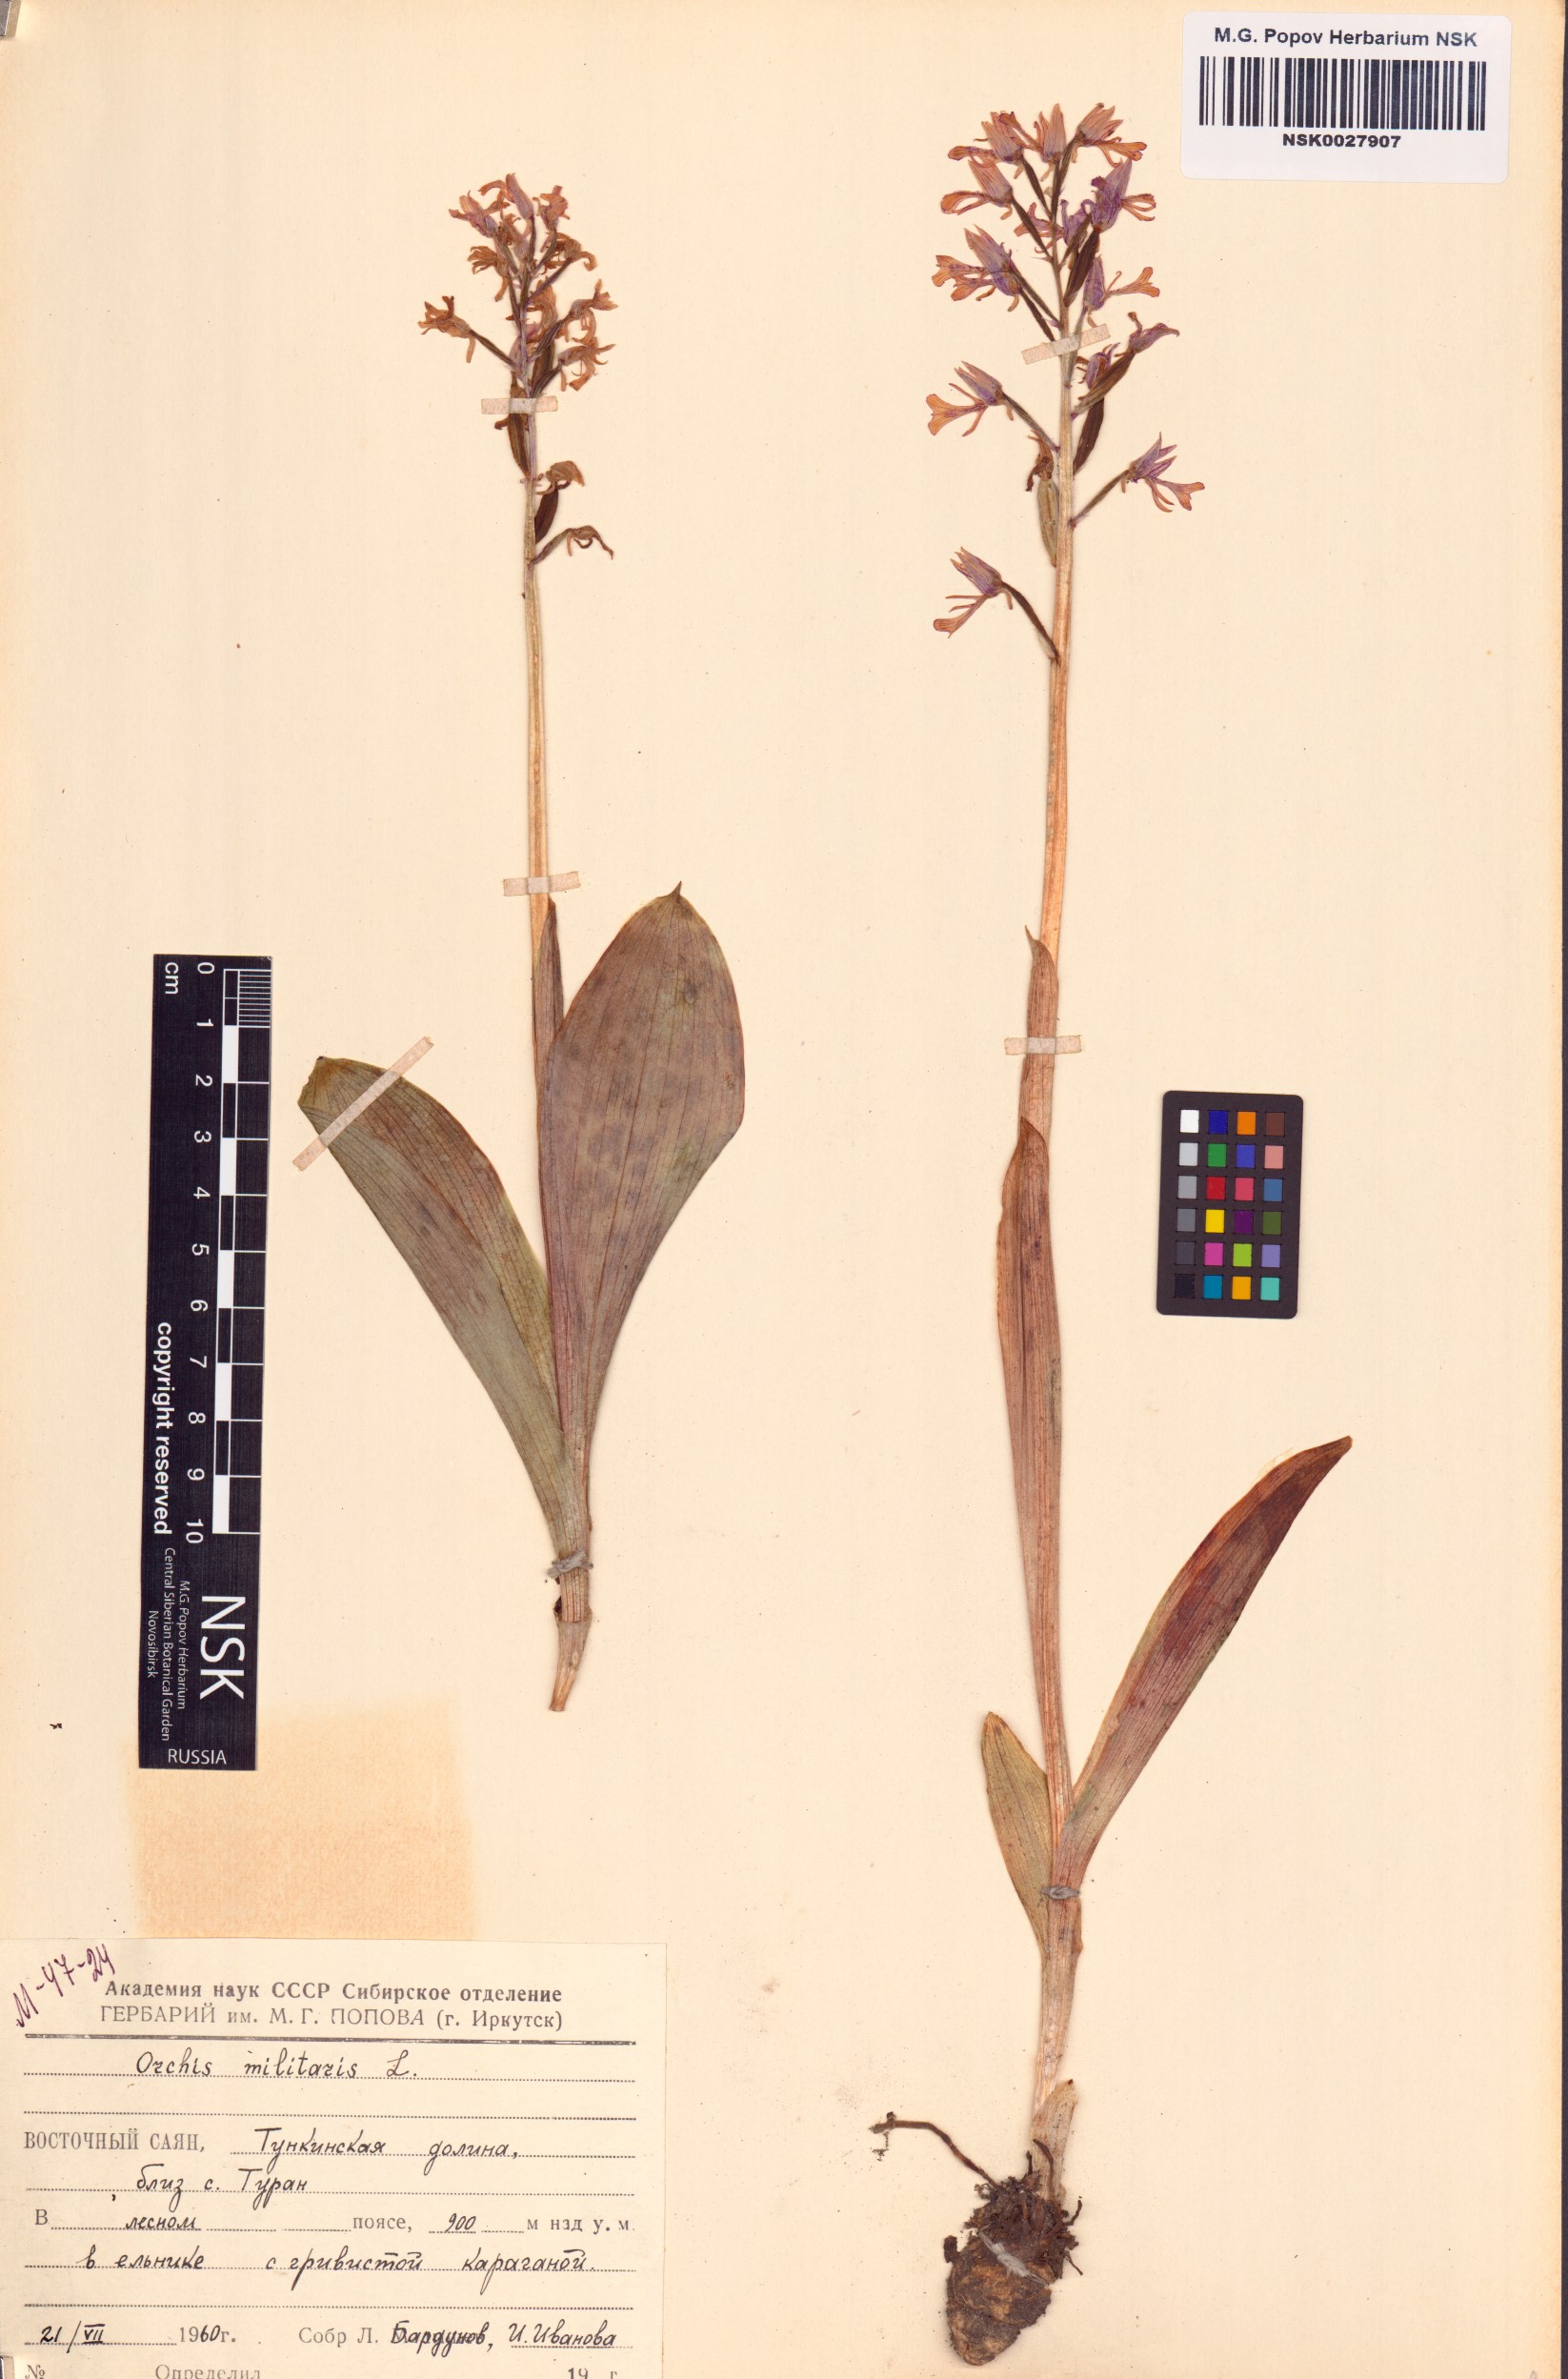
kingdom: Plantae
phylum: Tracheophyta
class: Liliopsida
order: Asparagales
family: Orchidaceae
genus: Orchis
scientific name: Orchis militaris
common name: Military orchid
